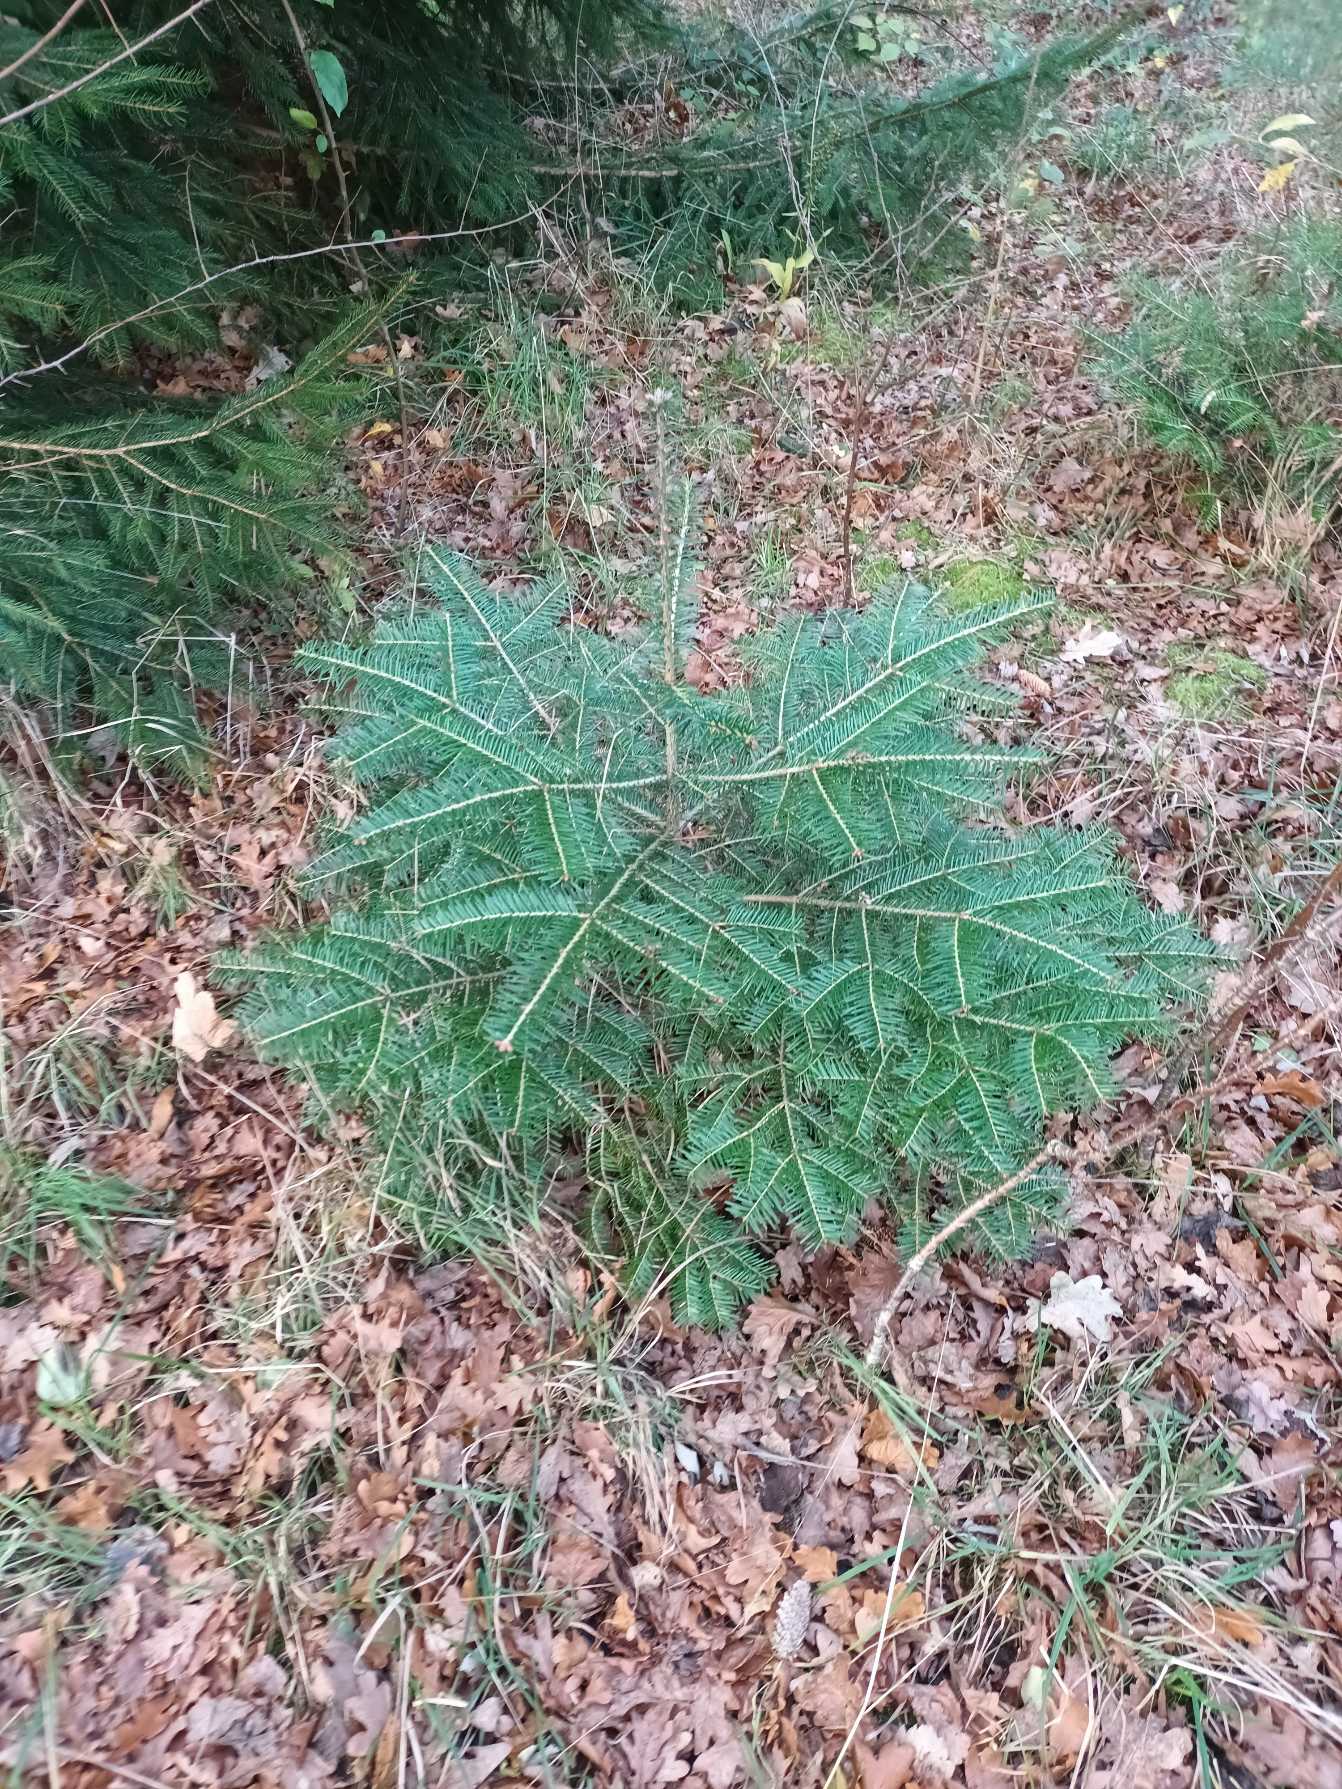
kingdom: Plantae
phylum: Tracheophyta
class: Pinopsida
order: Pinales
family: Pinaceae
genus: Abies
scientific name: Abies grandis
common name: Kæmpegran
